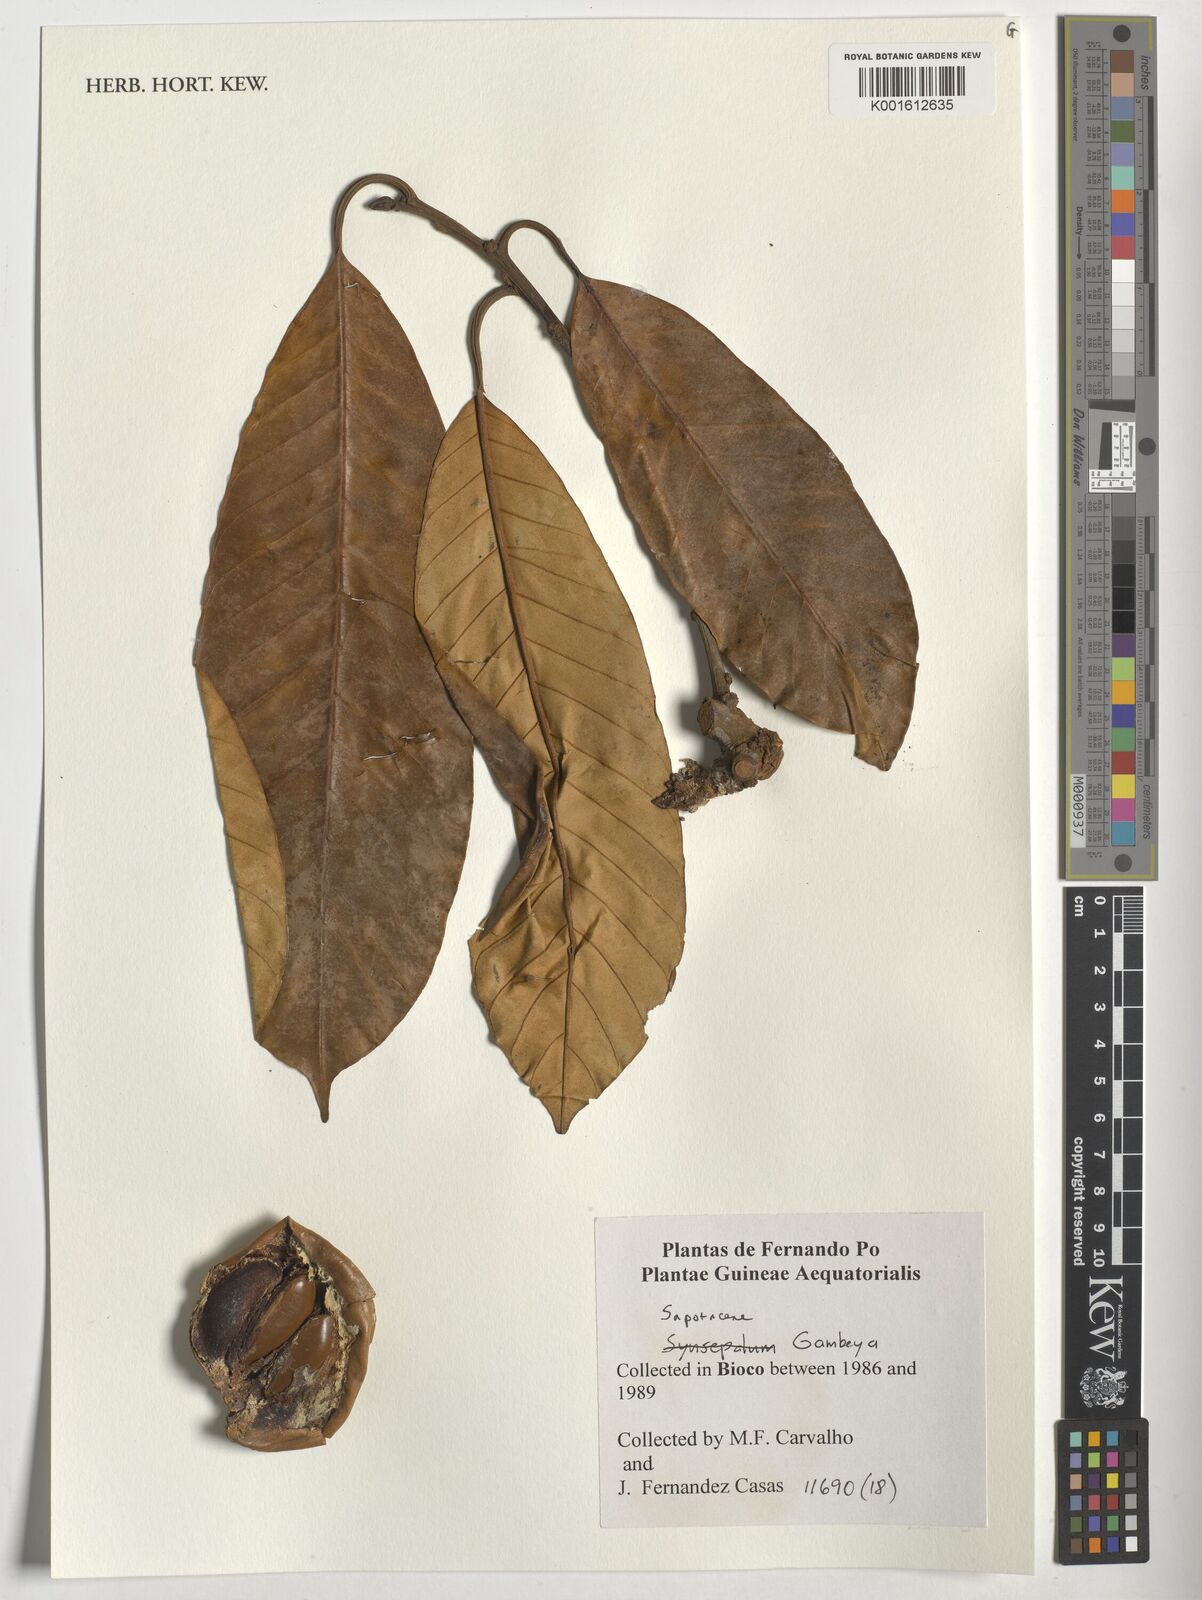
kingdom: Plantae
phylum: Tracheophyta
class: Magnoliopsida
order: Ericales
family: Sapotaceae
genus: Gambeya
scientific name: Gambeya
